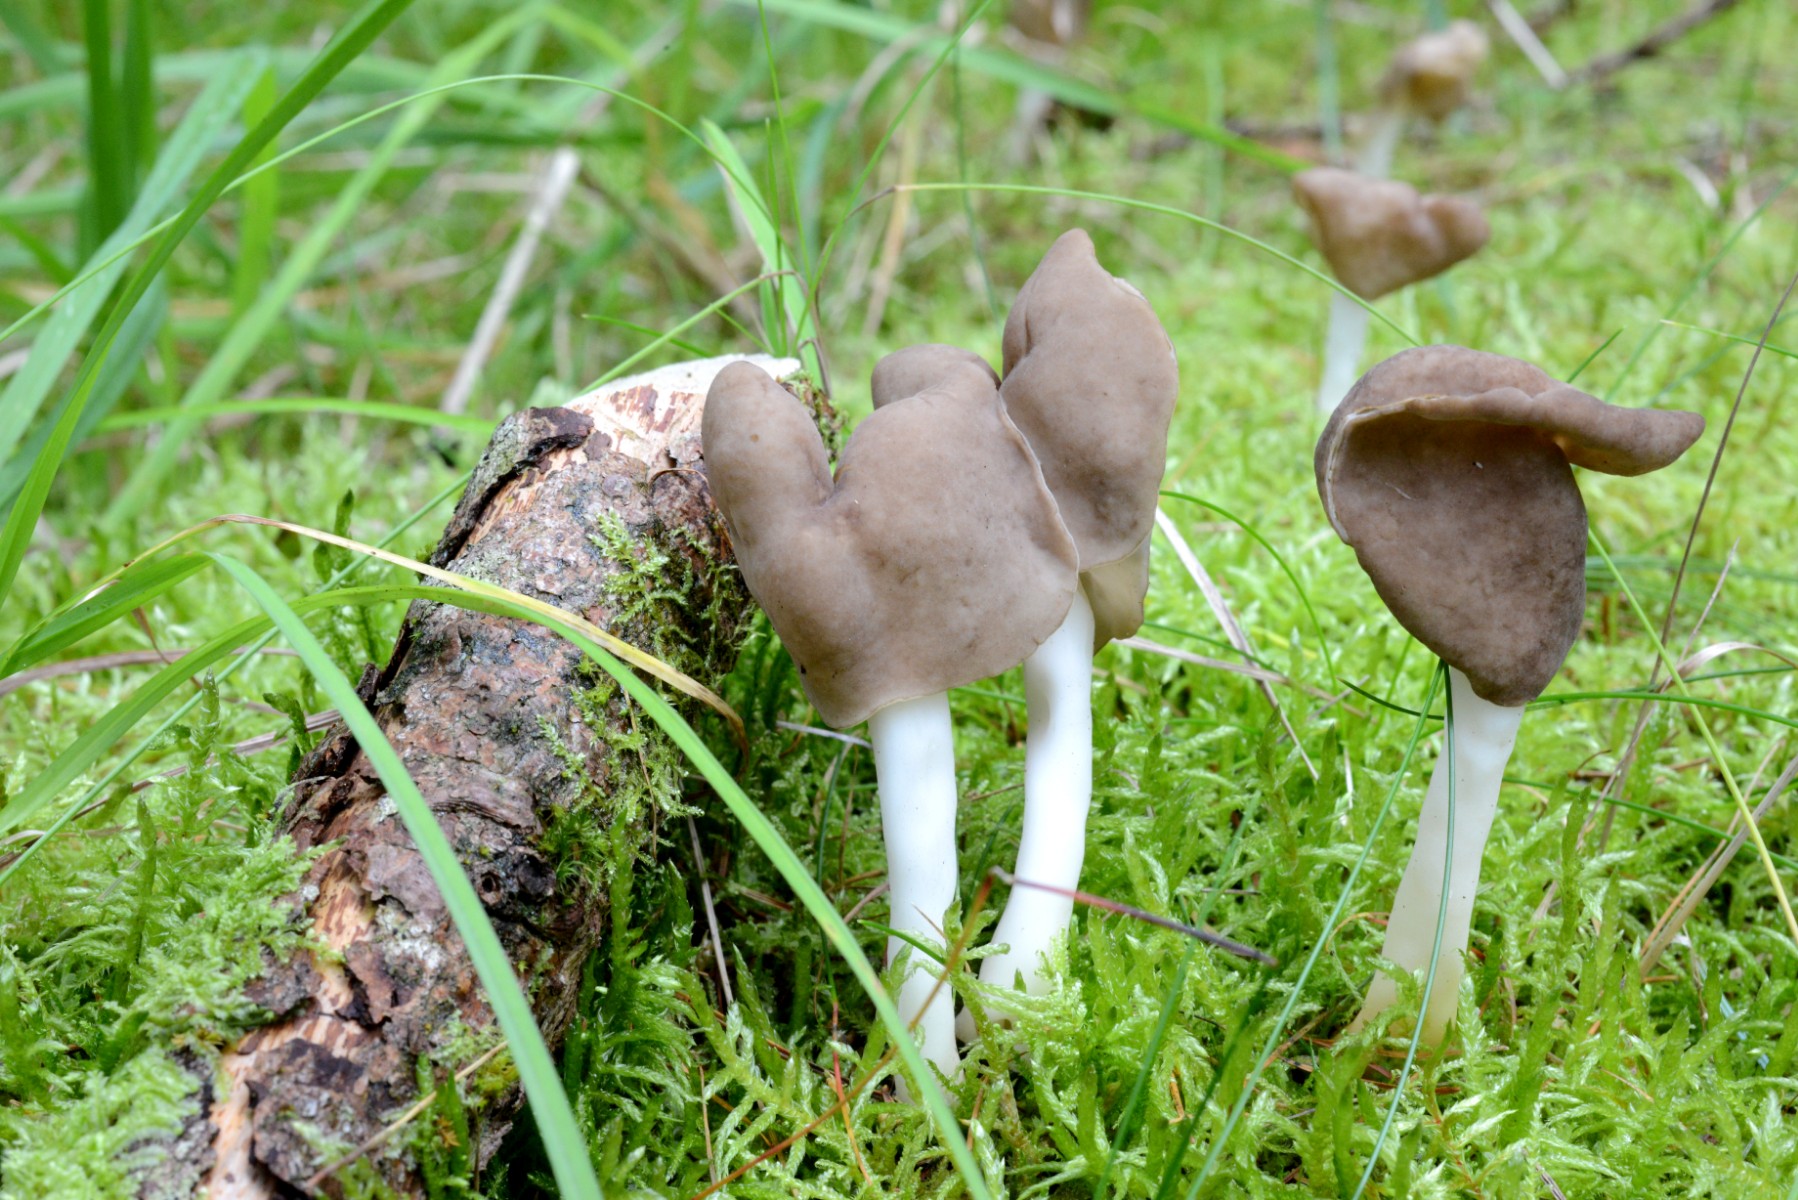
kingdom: Fungi
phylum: Ascomycota
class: Pezizomycetes
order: Pezizales
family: Helvellaceae
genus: Helvella
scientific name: Helvella elastica
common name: elastik-foldhat
